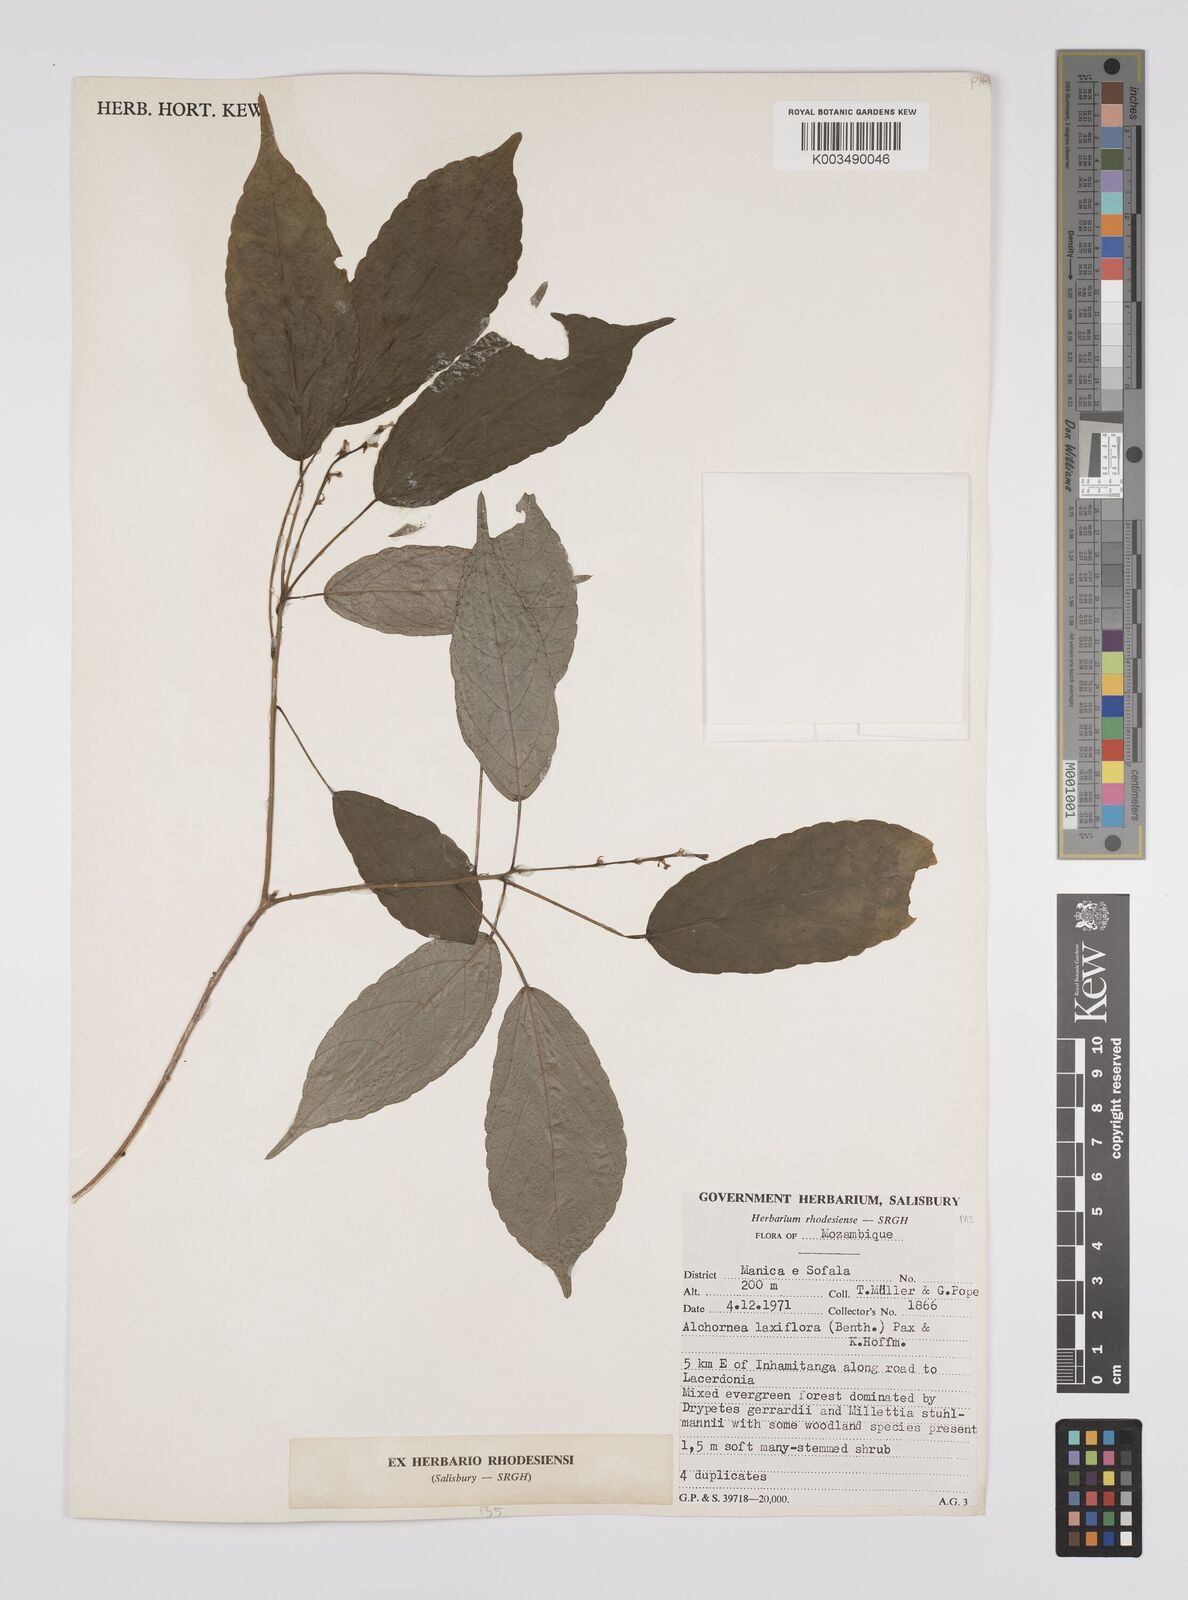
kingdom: Plantae
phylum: Tracheophyta
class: Magnoliopsida
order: Malpighiales
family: Euphorbiaceae
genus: Alchornea
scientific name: Alchornea laxiflora
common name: Lowveld bead-string
